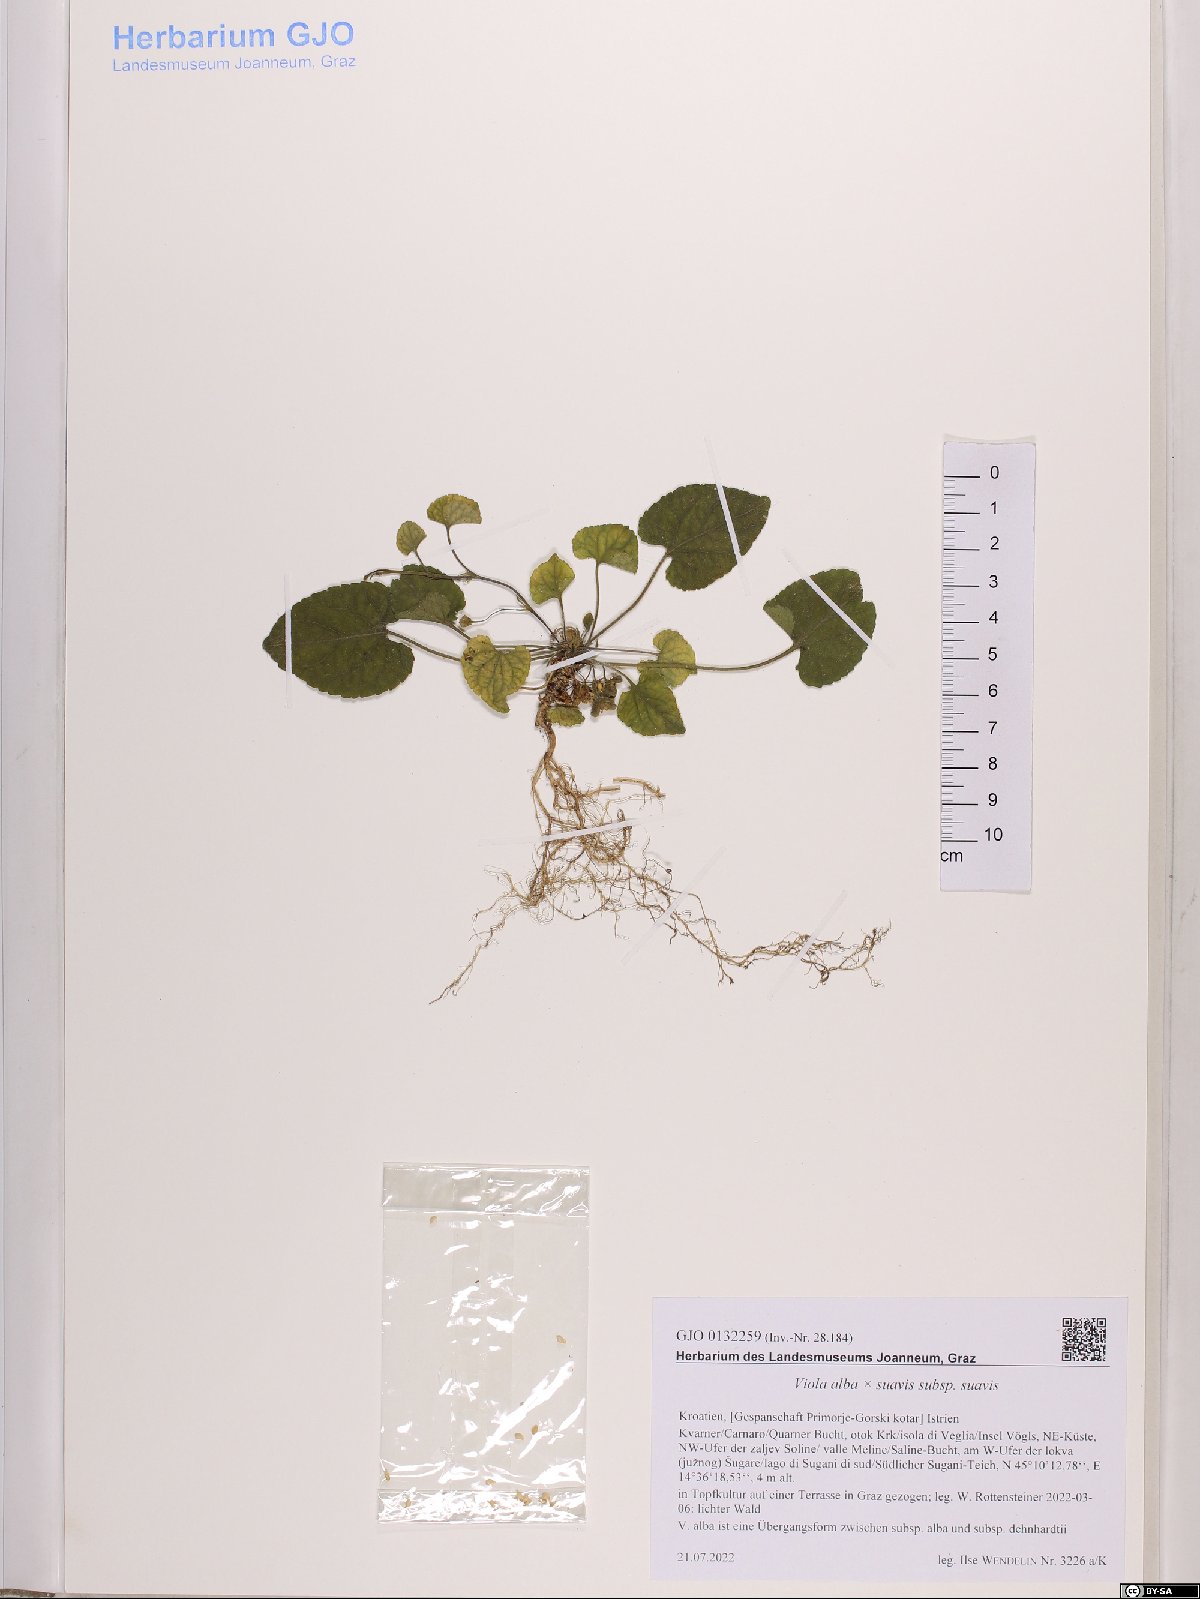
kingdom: Plantae
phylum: Tracheophyta
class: Magnoliopsida
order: Malpighiales
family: Violaceae
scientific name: Violaceae
